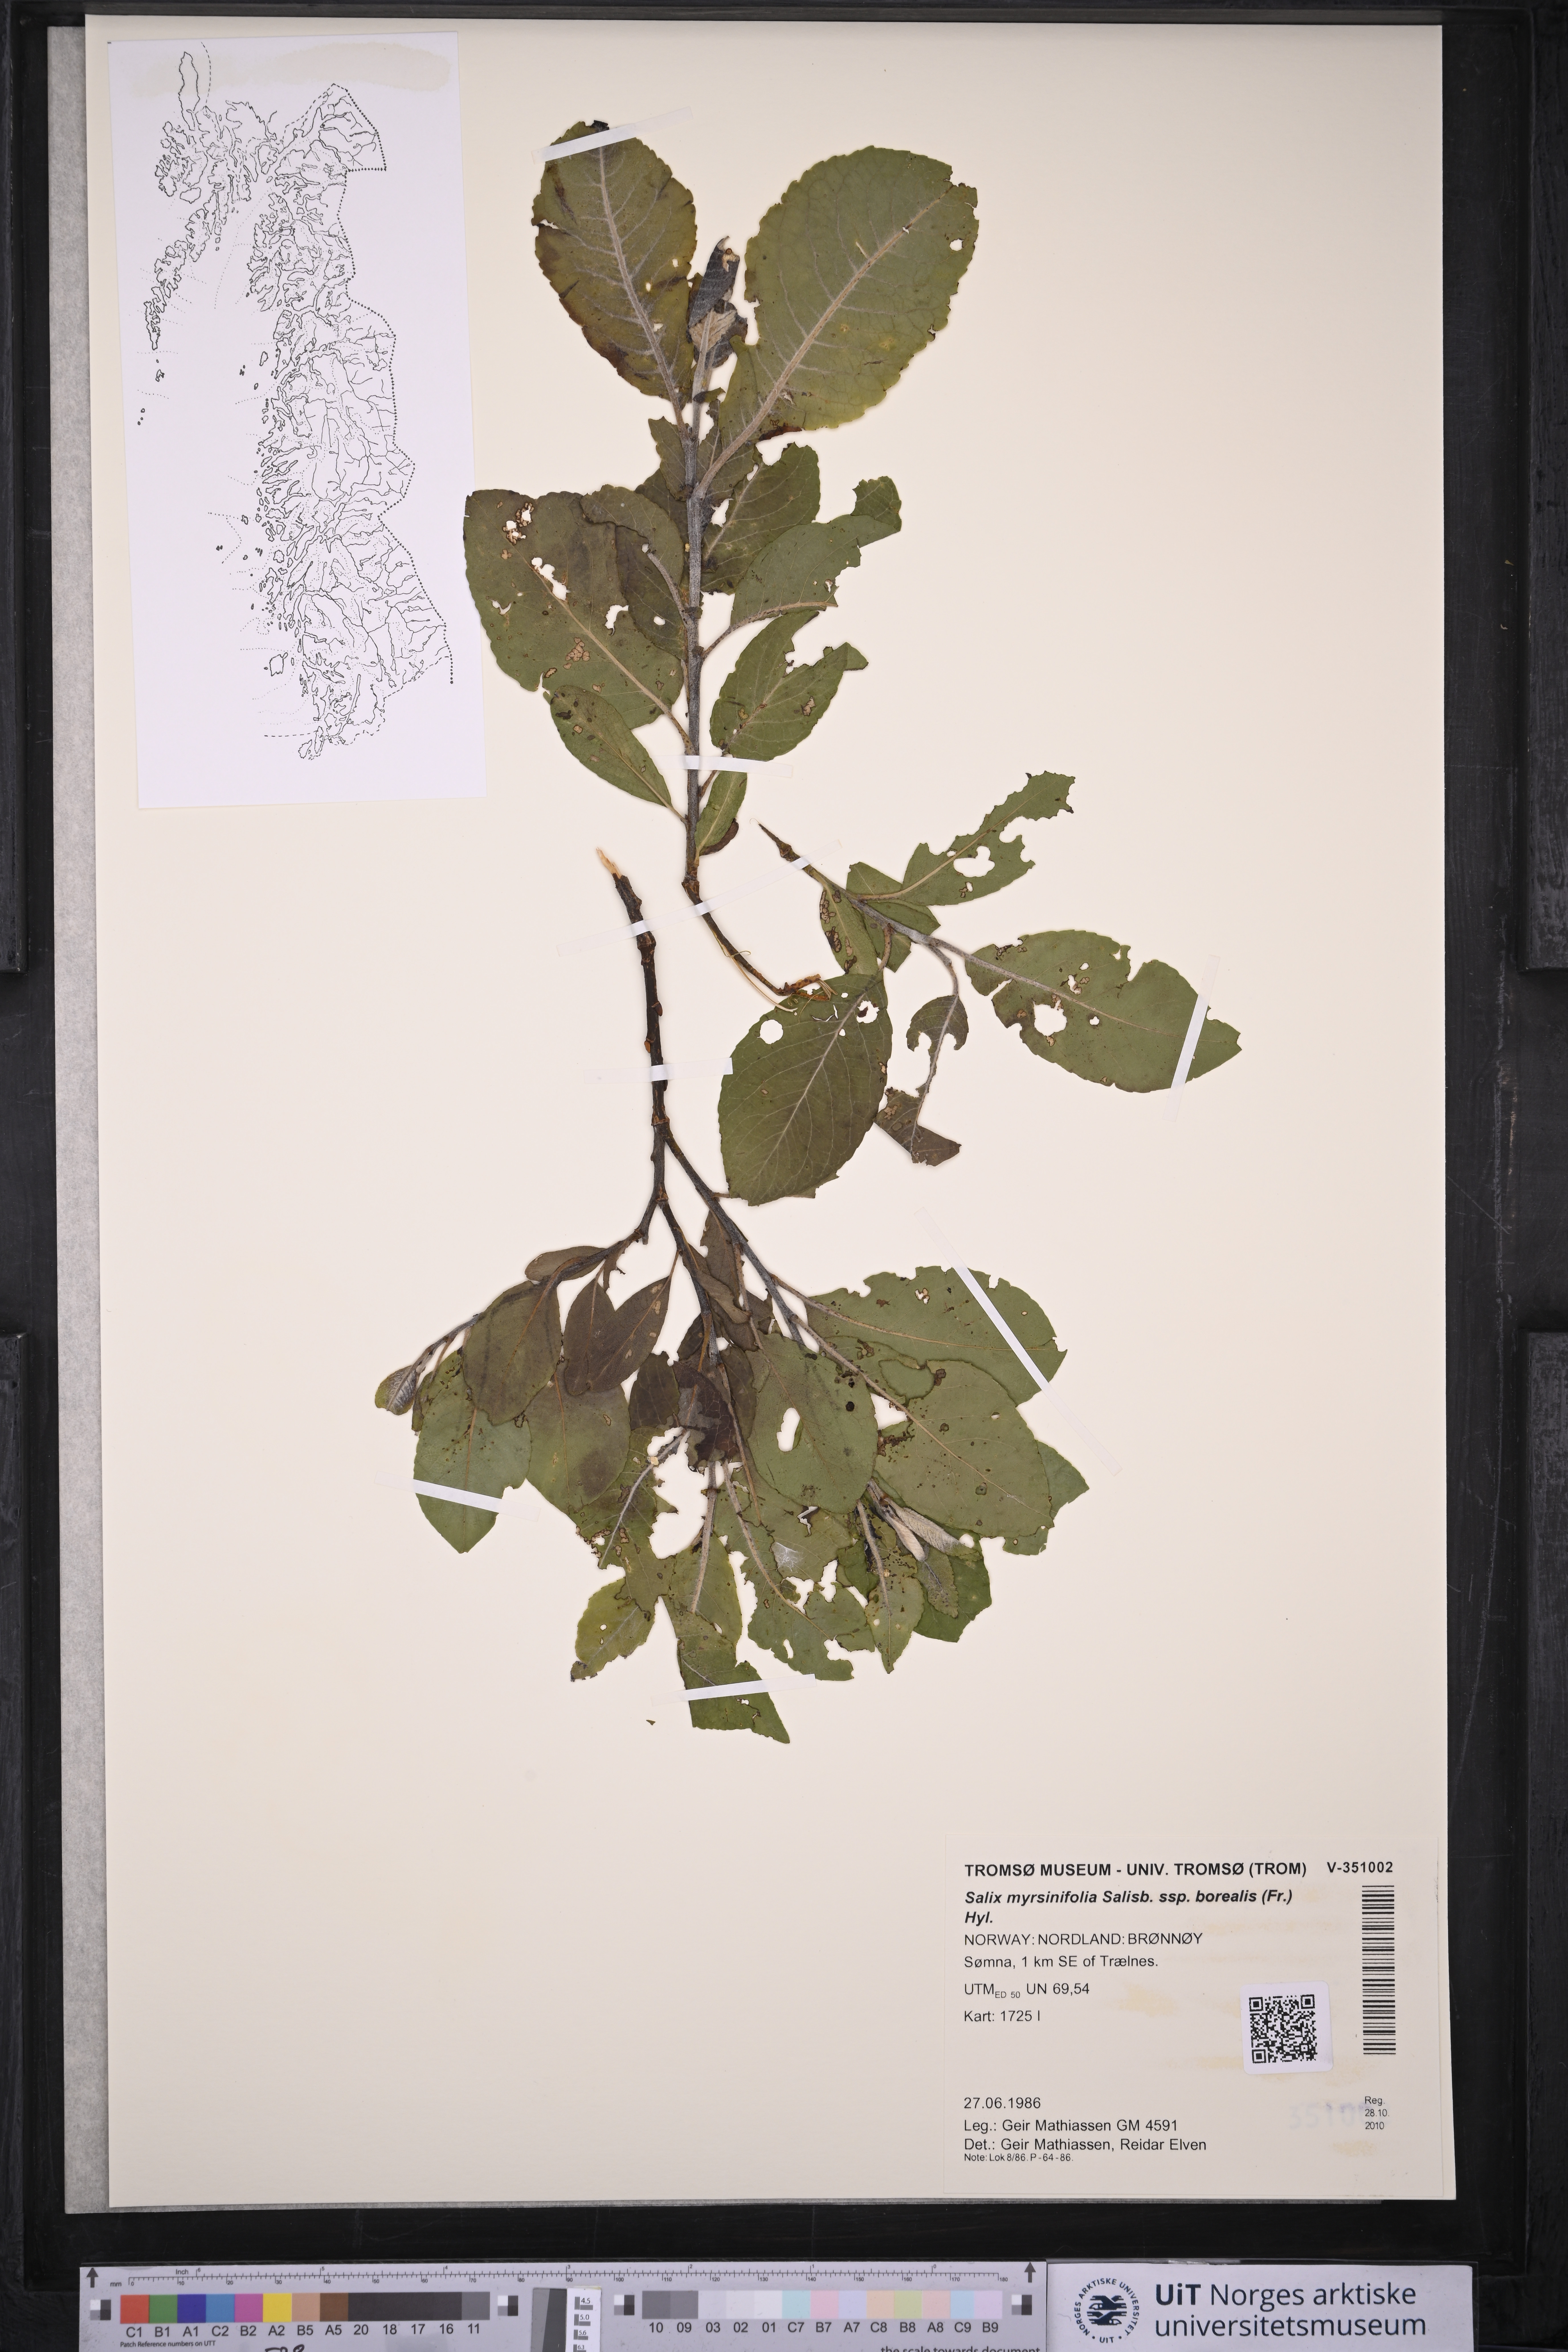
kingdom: Plantae
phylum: Tracheophyta
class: Magnoliopsida
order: Malpighiales
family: Salicaceae
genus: Salix
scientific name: Salix myrsinifolia
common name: Dark-leaved willow
